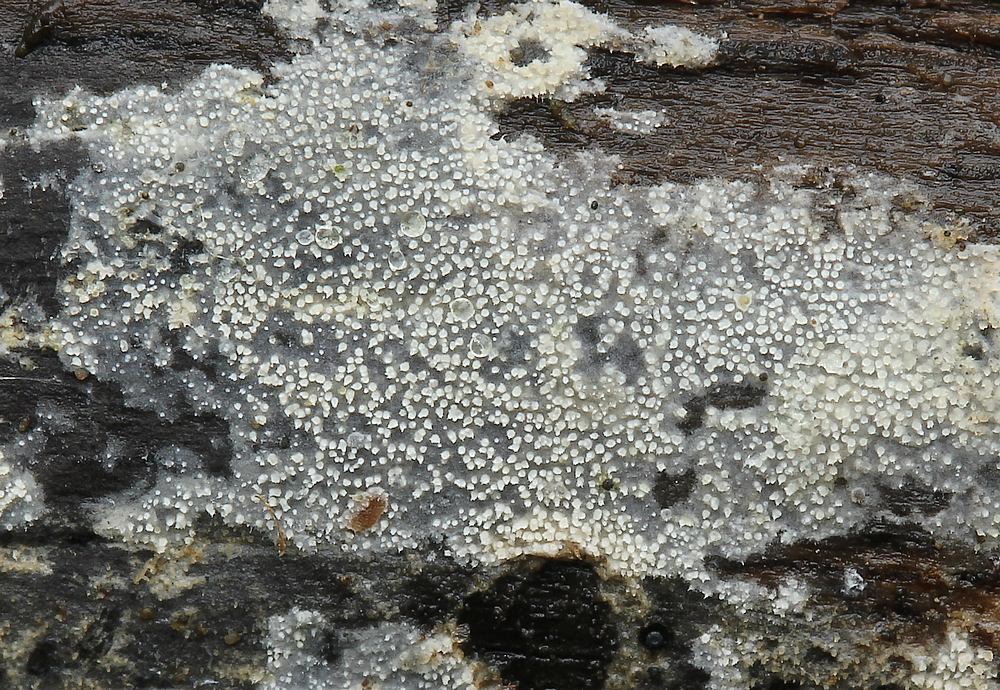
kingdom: Fungi
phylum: Basidiomycota
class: Agaricomycetes
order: Polyporales
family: Meruliaceae
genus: Scopuloides
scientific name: Scopuloides rimosa
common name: dughinde
